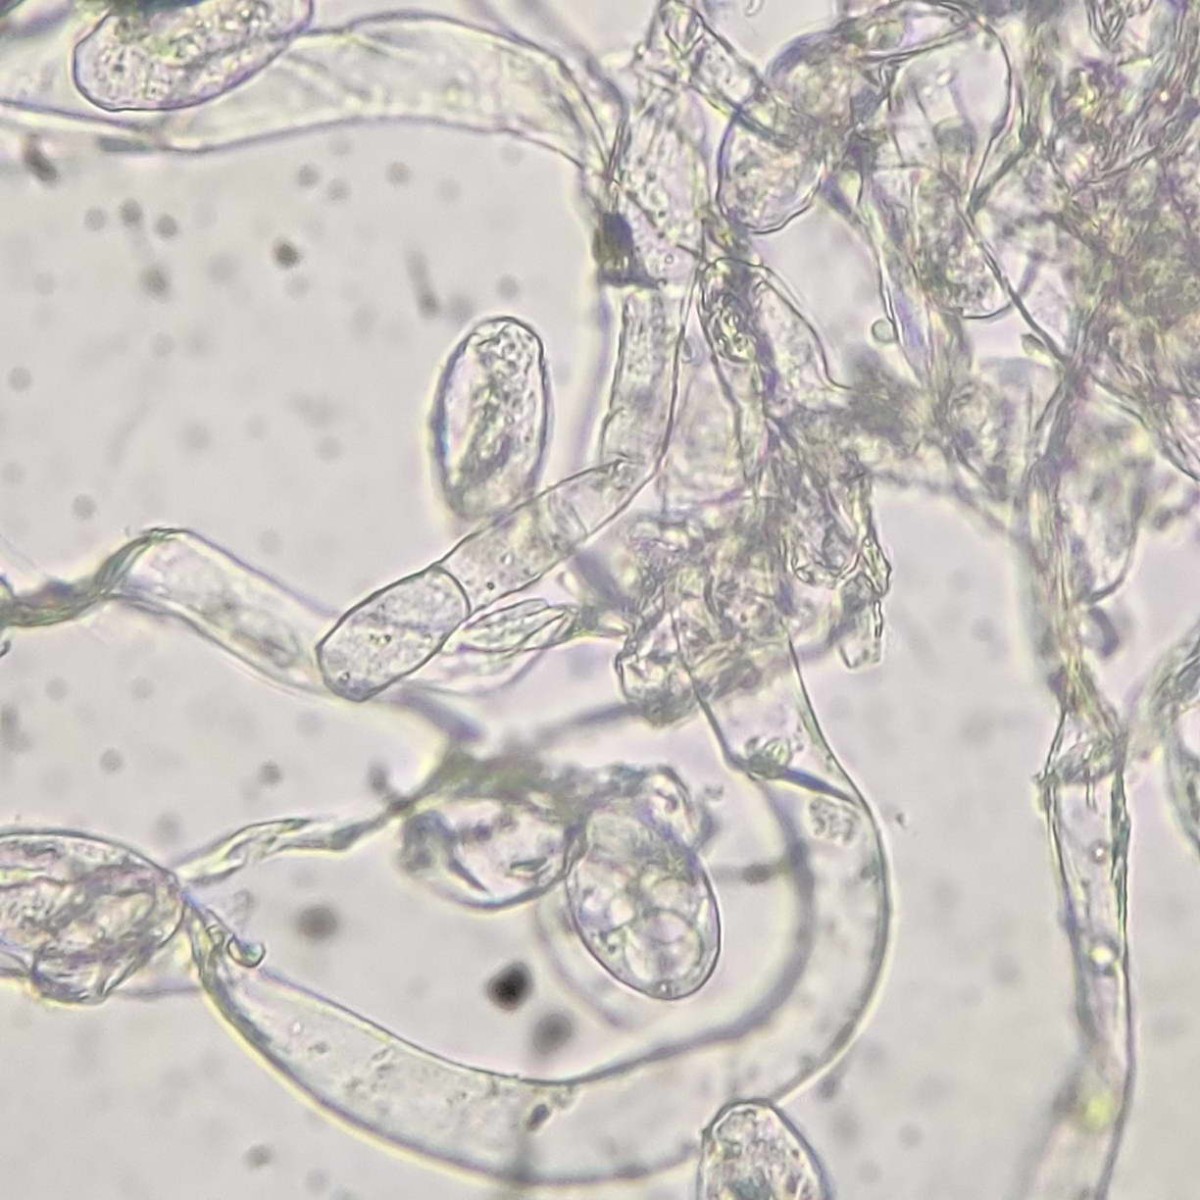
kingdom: Fungi
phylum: Ascomycota
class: Leotiomycetes
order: Helotiales
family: Erysiphaceae
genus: Podosphaera
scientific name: Podosphaera aphanis
